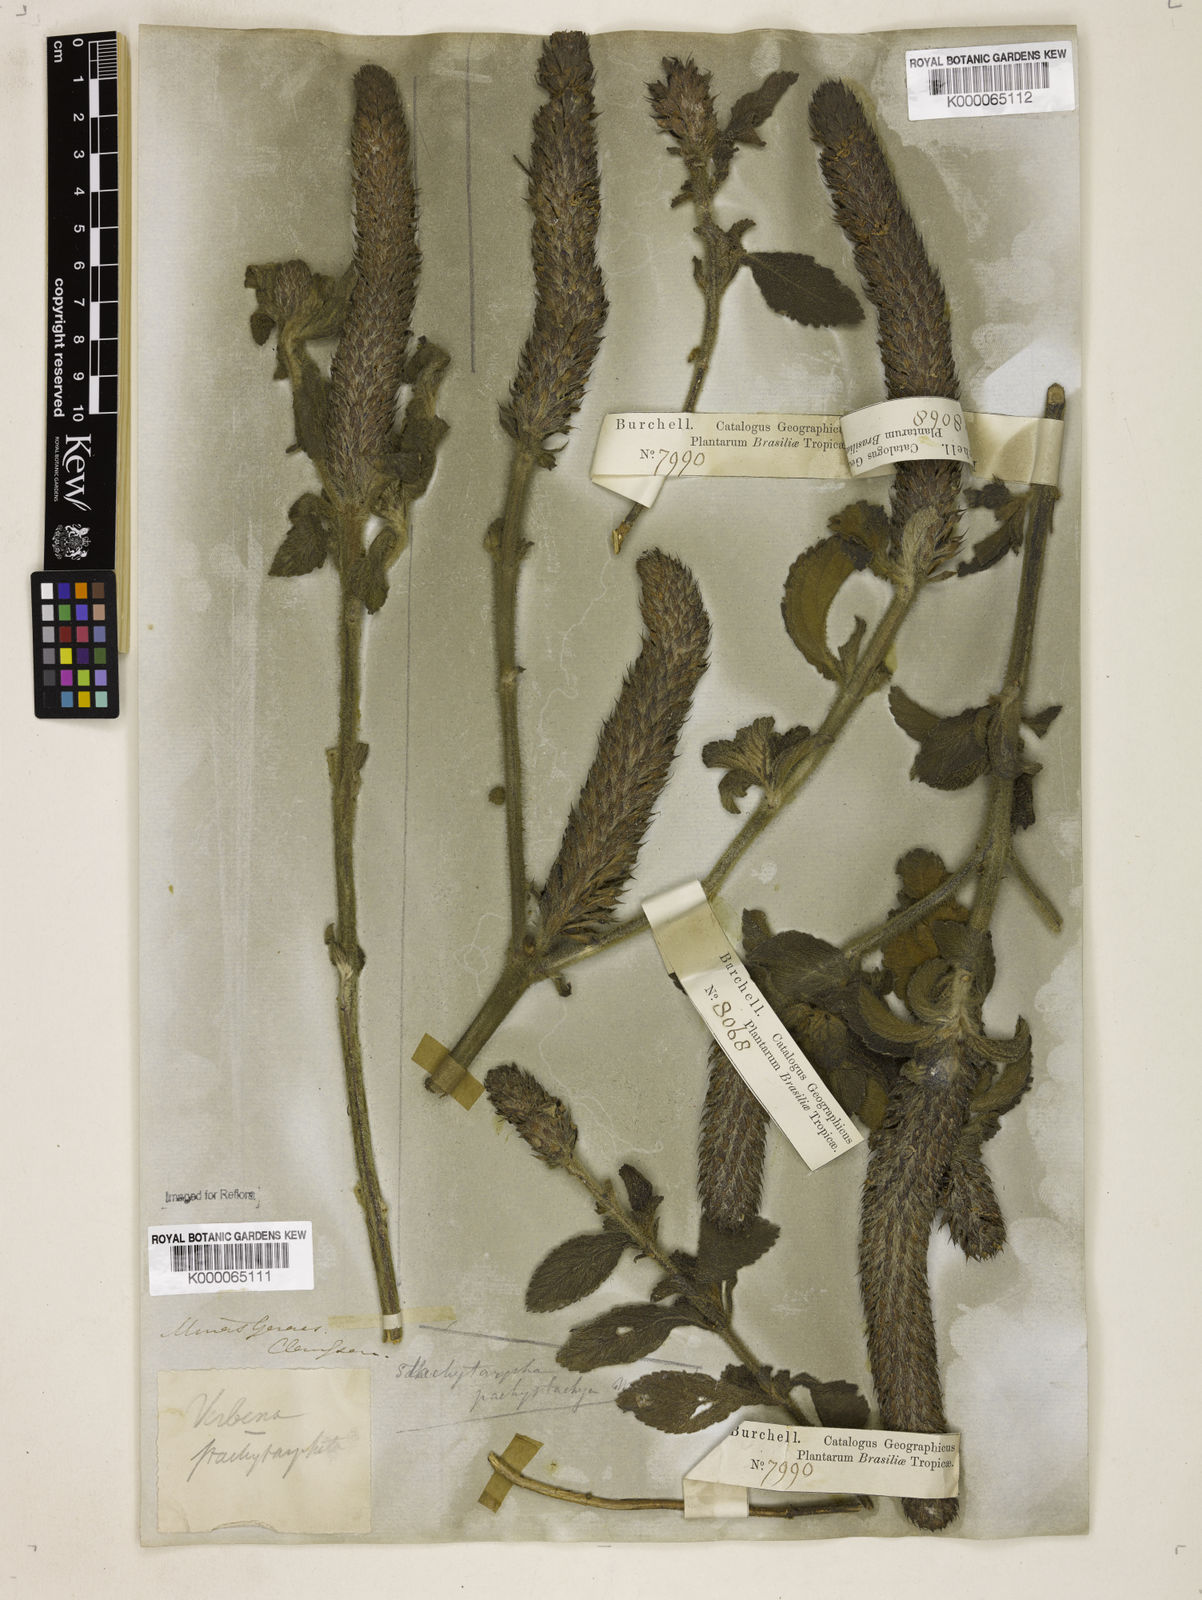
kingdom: Plantae
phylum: Tracheophyta
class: Magnoliopsida
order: Lamiales
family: Verbenaceae
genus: Stachytarpheta
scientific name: Stachytarpheta
